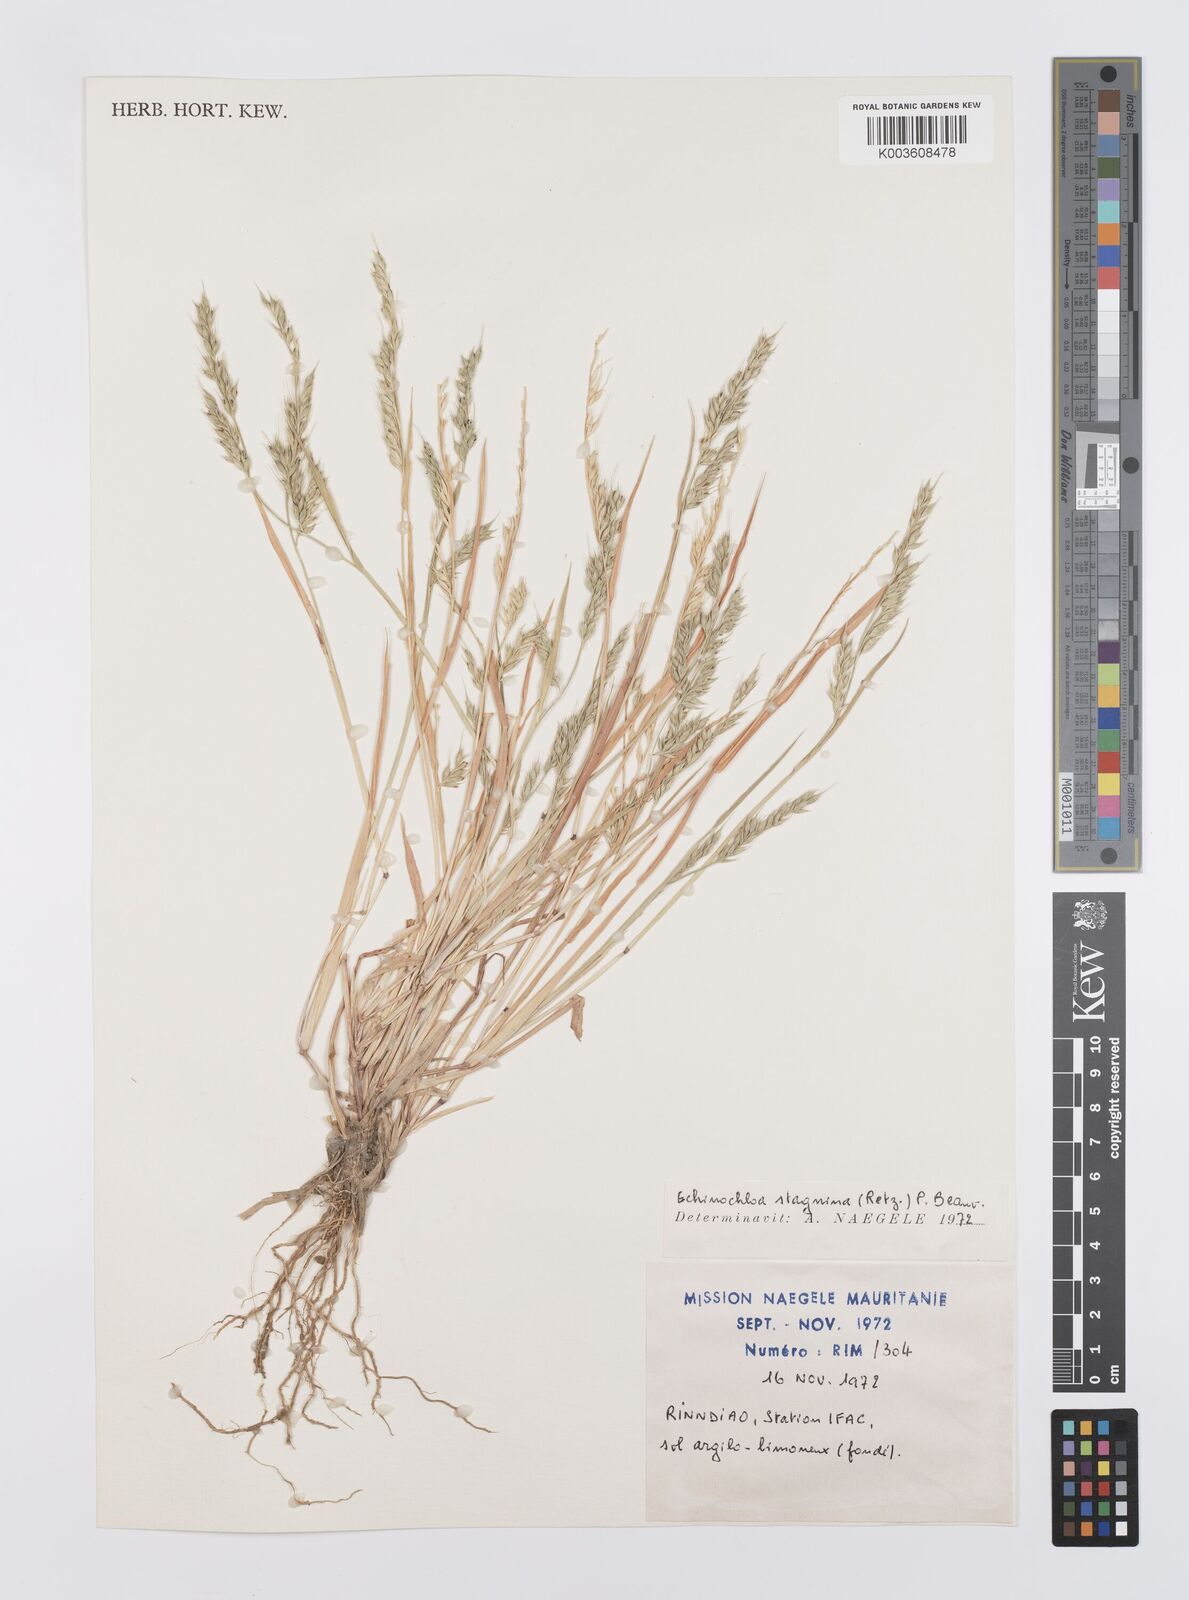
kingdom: Plantae
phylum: Tracheophyta
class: Liliopsida
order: Poales
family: Poaceae
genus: Echinochloa
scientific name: Echinochloa stagnina
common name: Burgu grass
